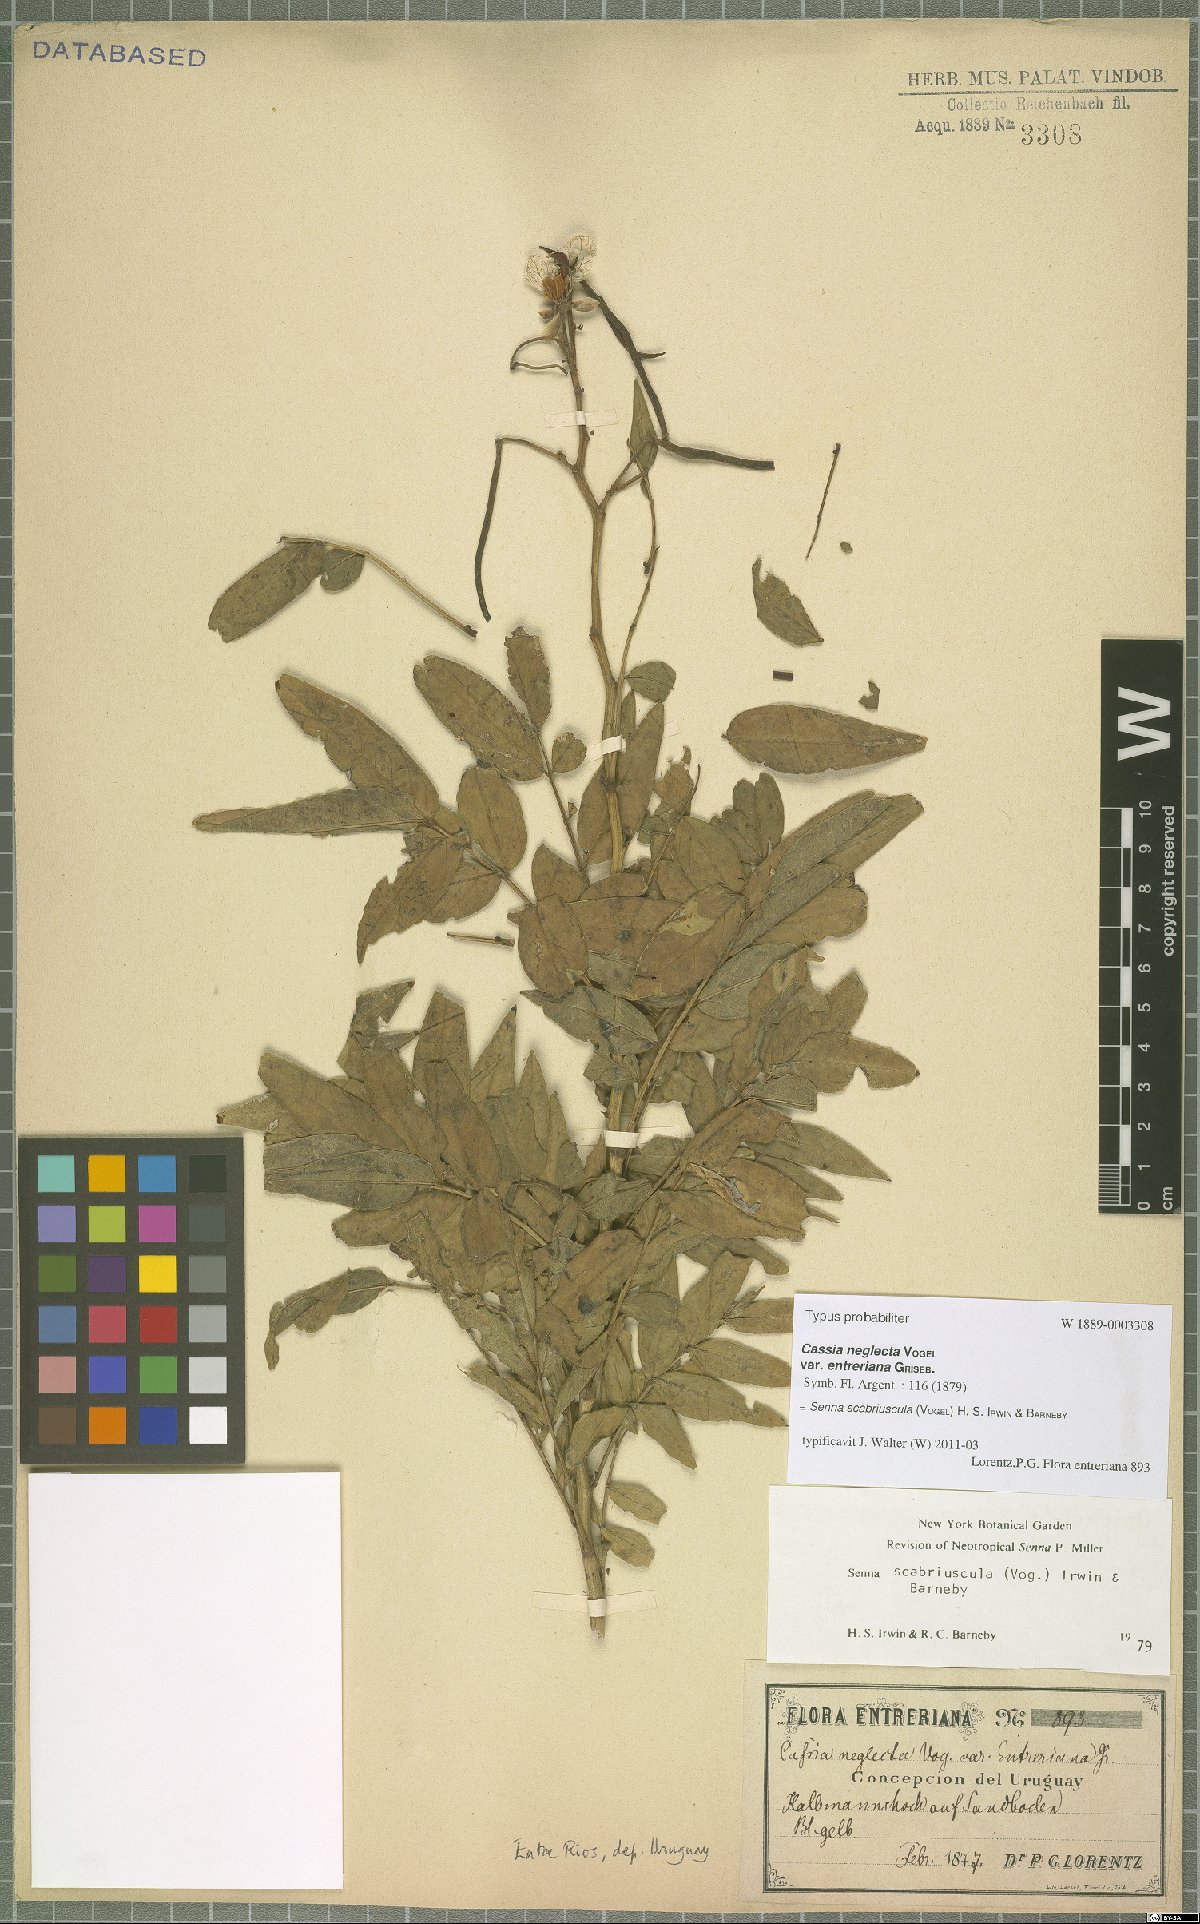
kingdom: Plantae
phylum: Tracheophyta
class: Magnoliopsida
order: Fabales
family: Fabaceae
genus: Senna
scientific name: Senna scabriuscula
